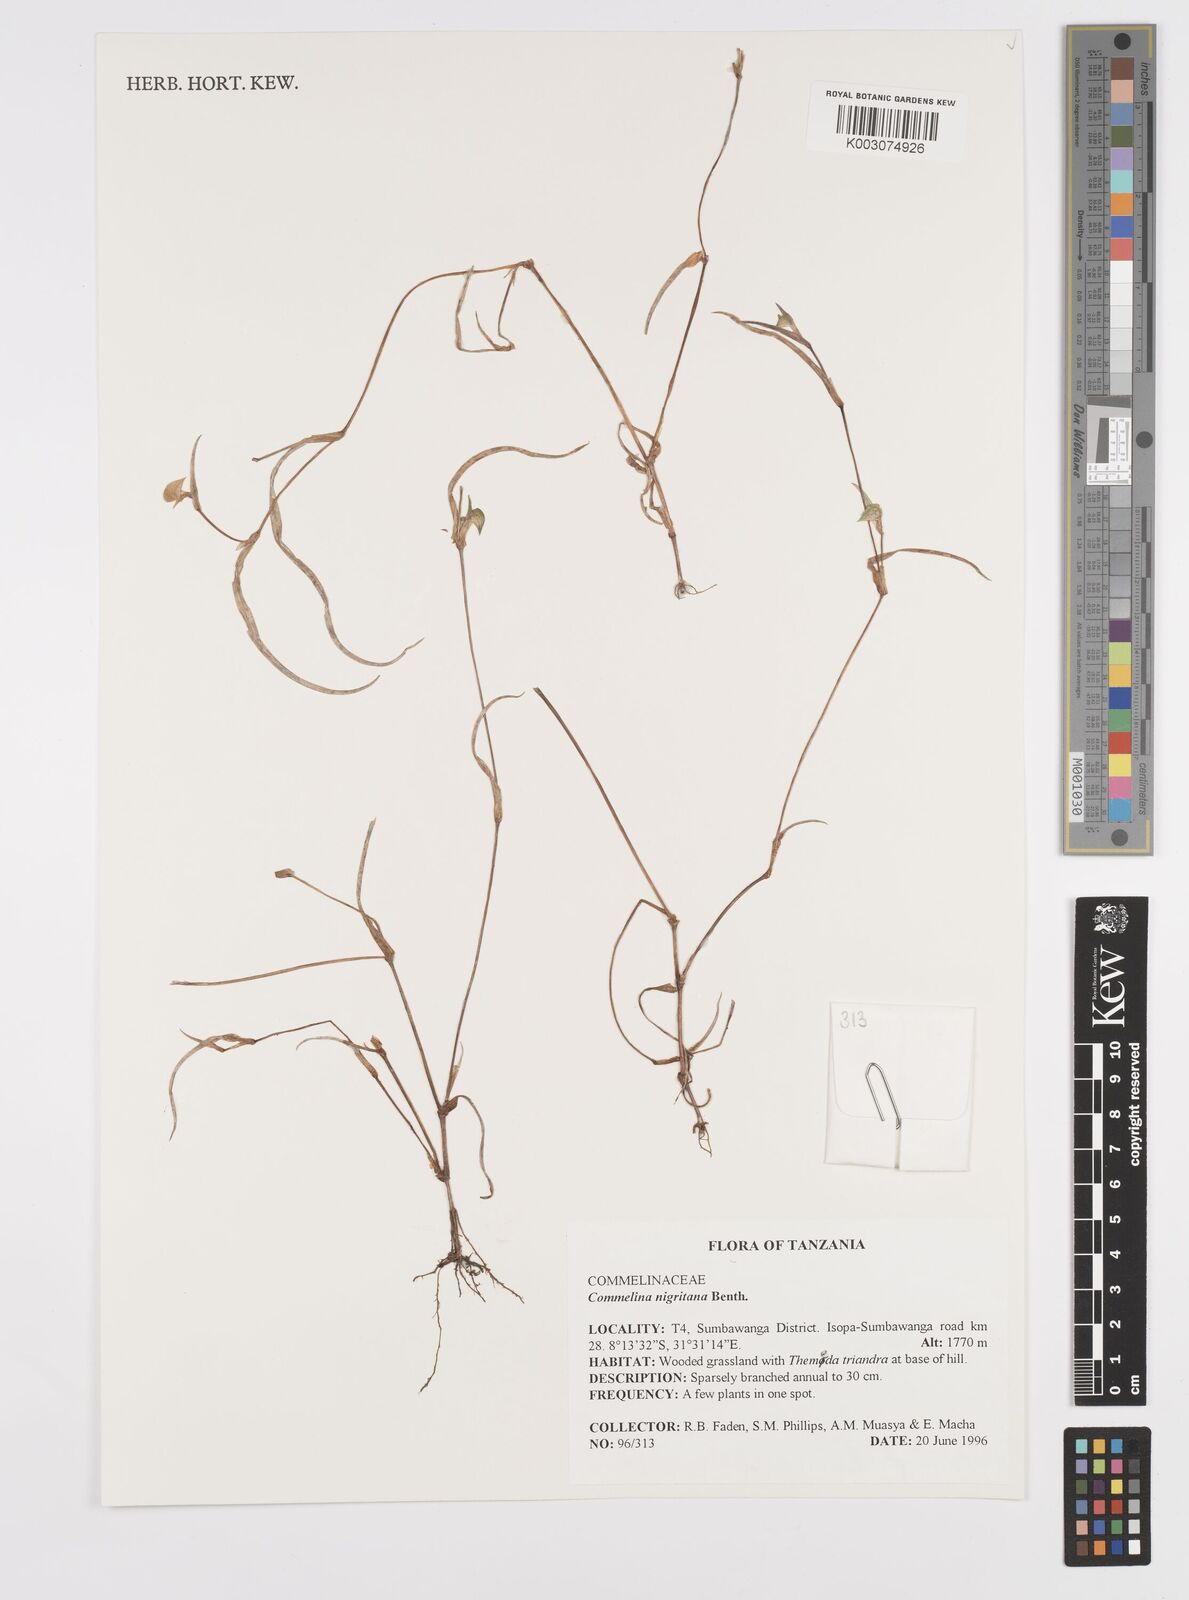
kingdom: Plantae
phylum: Tracheophyta
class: Liliopsida
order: Commelinales
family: Commelinaceae
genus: Commelina
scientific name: Commelina nigritana
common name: African dayflower
